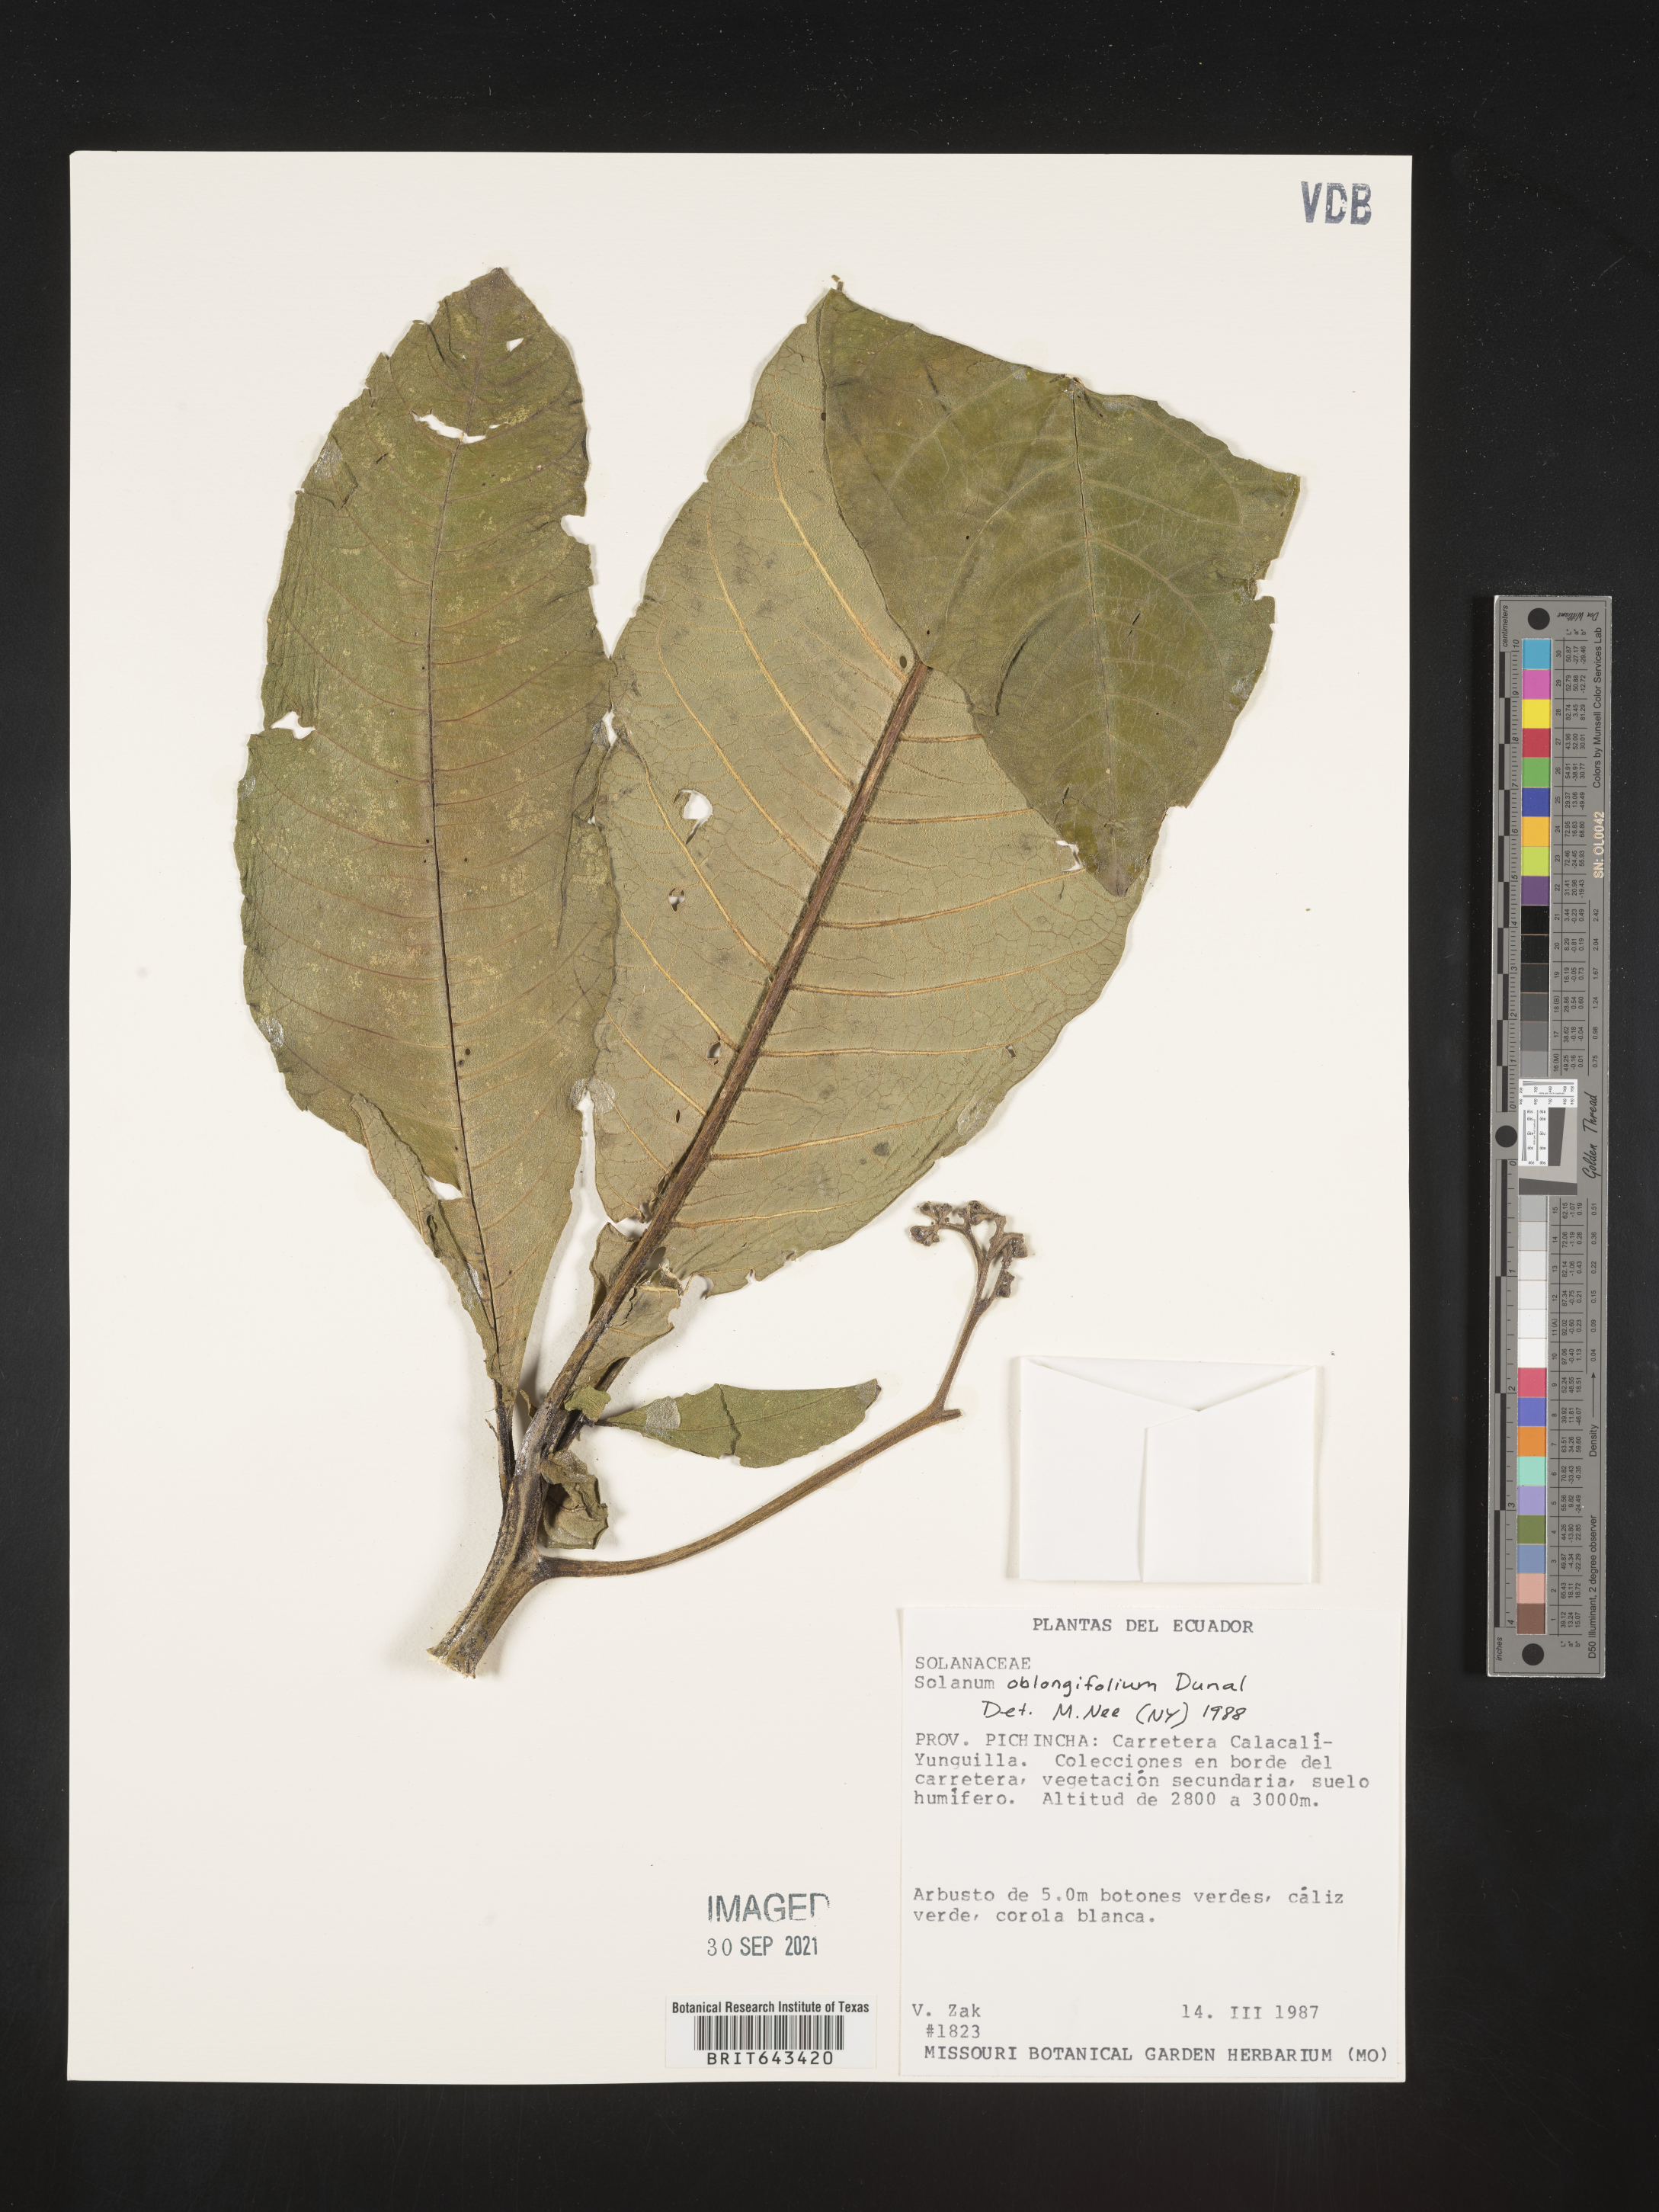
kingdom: Plantae
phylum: Tracheophyta
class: Magnoliopsida
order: Solanales
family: Solanaceae
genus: Solanum
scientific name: Solanum
